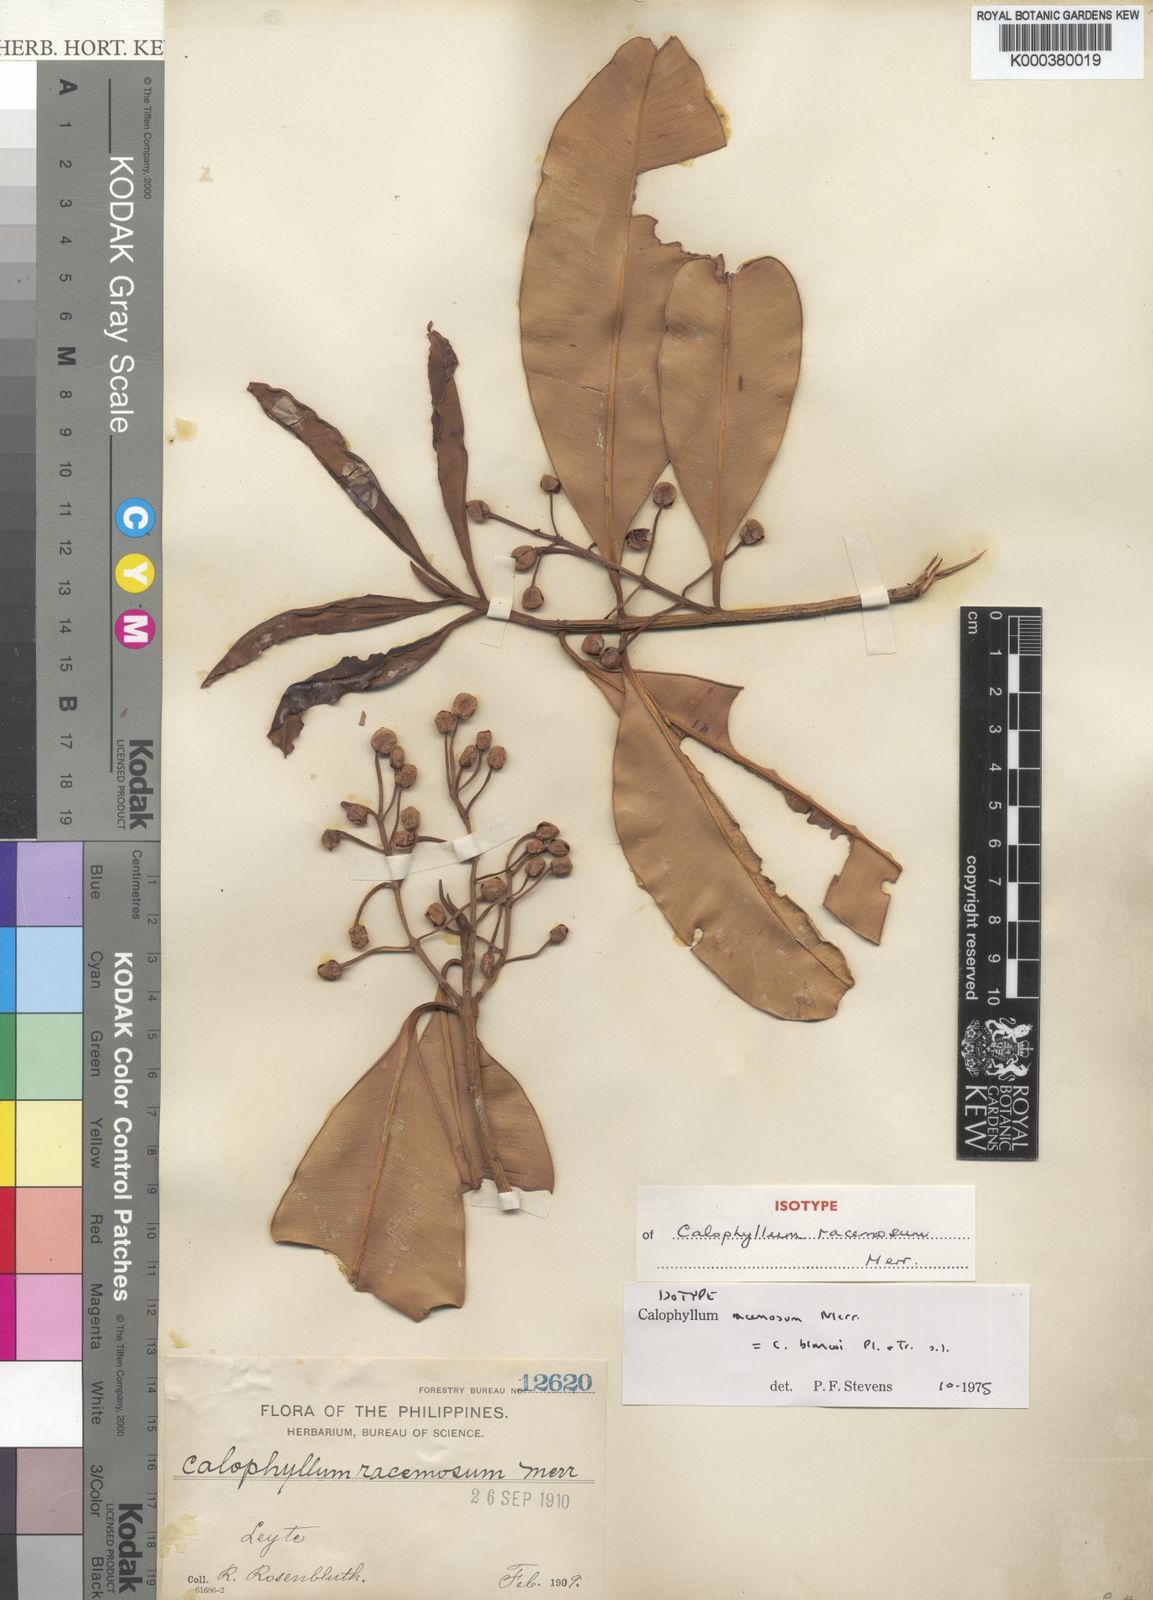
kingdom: Plantae
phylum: Tracheophyta
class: Magnoliopsida
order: Malpighiales
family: Calophyllaceae
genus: Calophyllum
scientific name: Calophyllum blancoi
